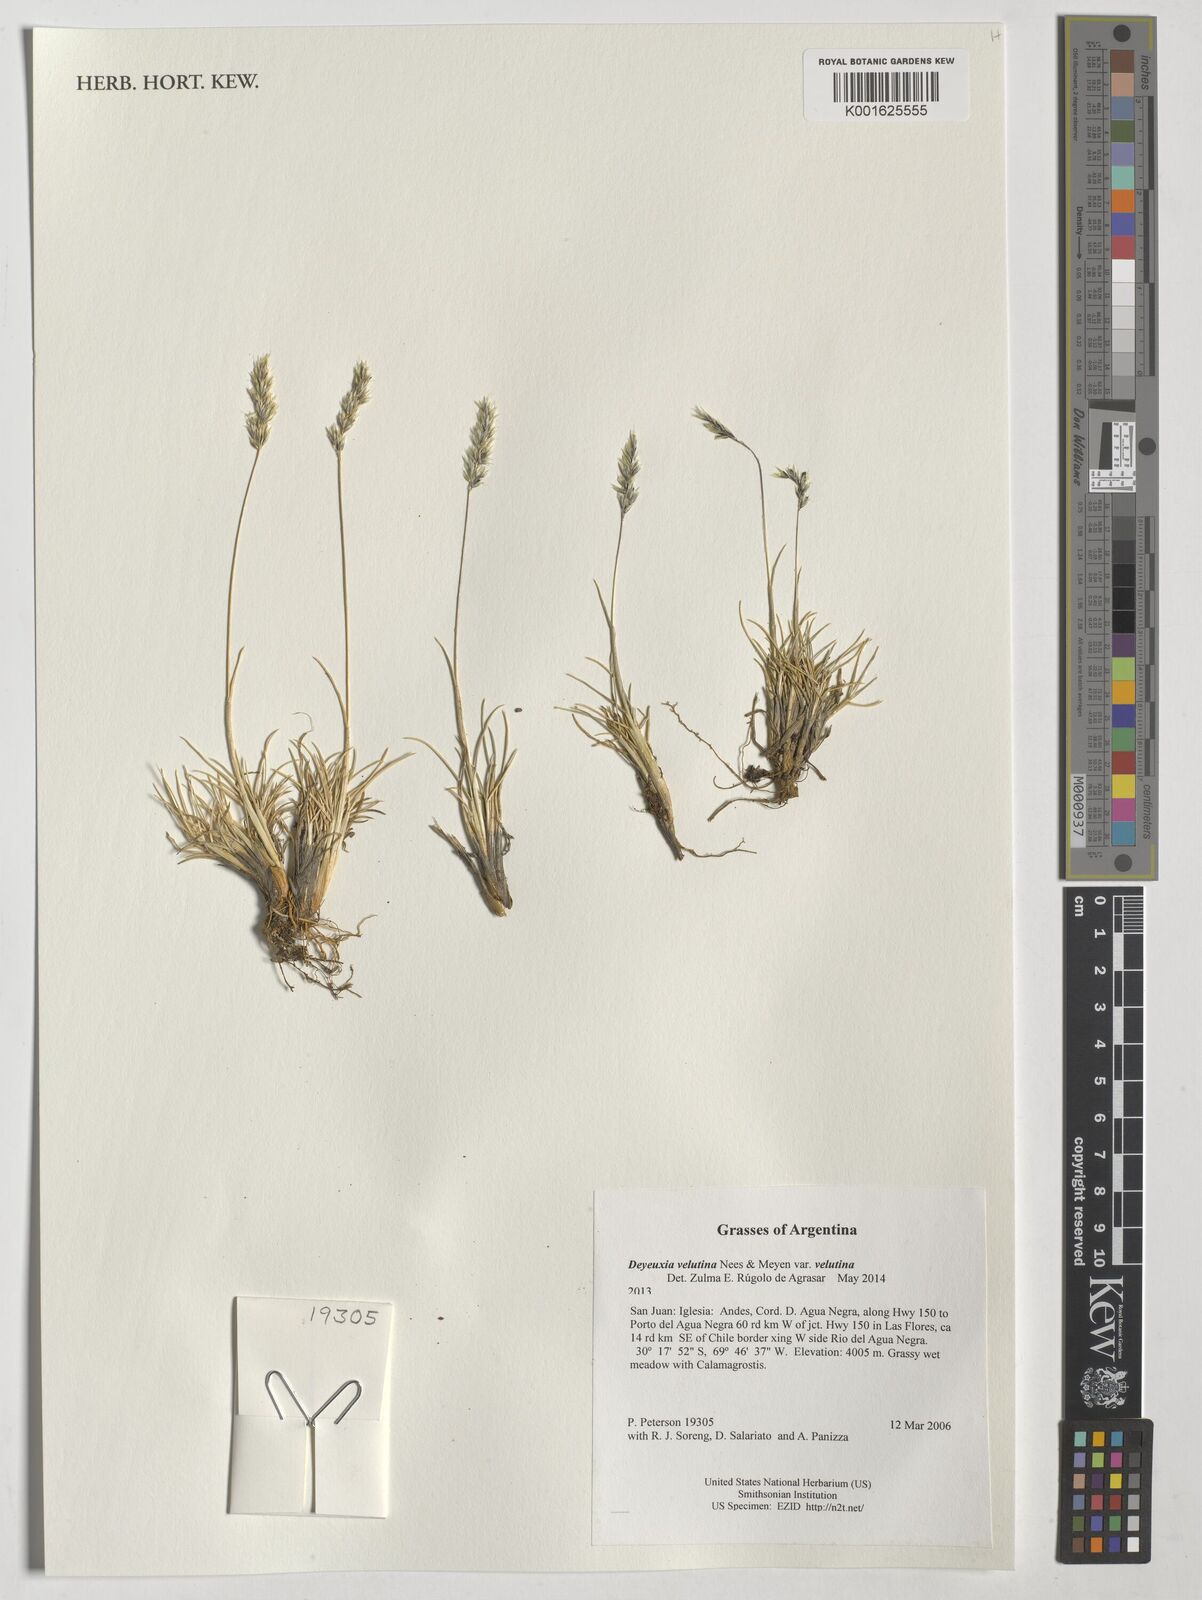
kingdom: Plantae
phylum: Tracheophyta
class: Liliopsida
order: Poales
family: Poaceae
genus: Cinnagrostis
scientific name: Cinnagrostis velutina
